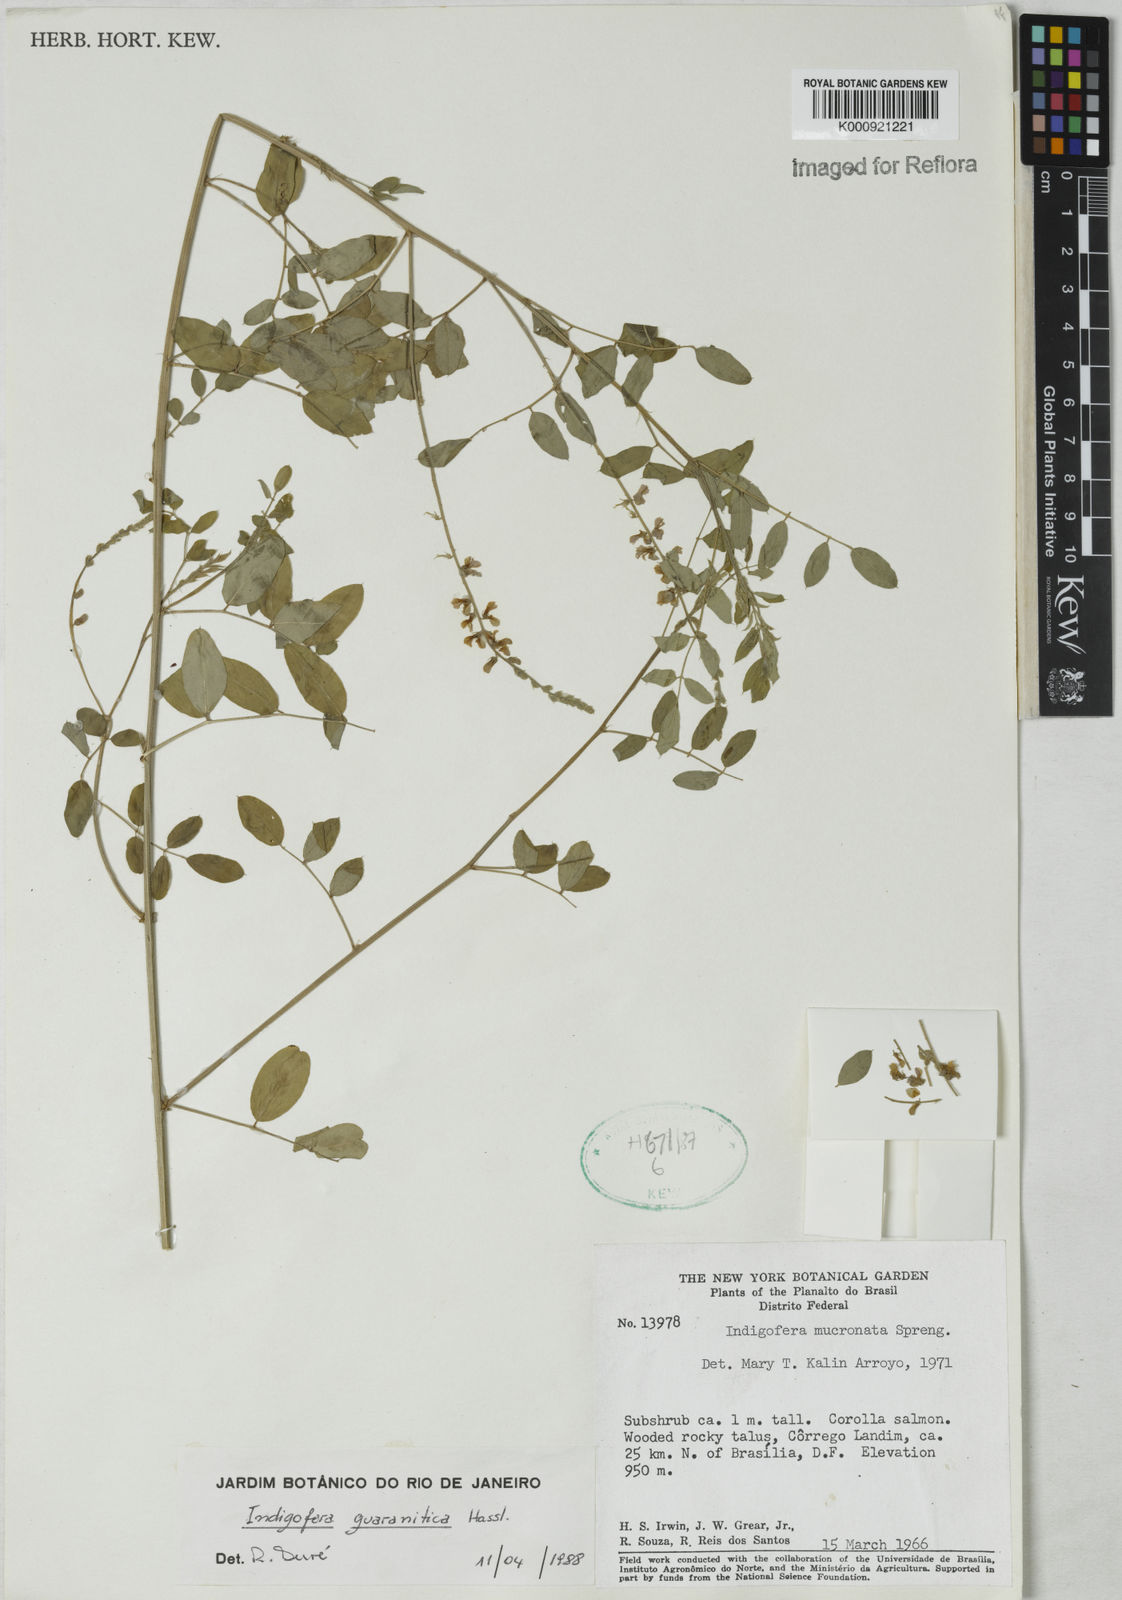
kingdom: Plantae
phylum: Tracheophyta
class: Magnoliopsida
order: Fabales
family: Fabaceae
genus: Indigofera
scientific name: Indigofera guaranitica
